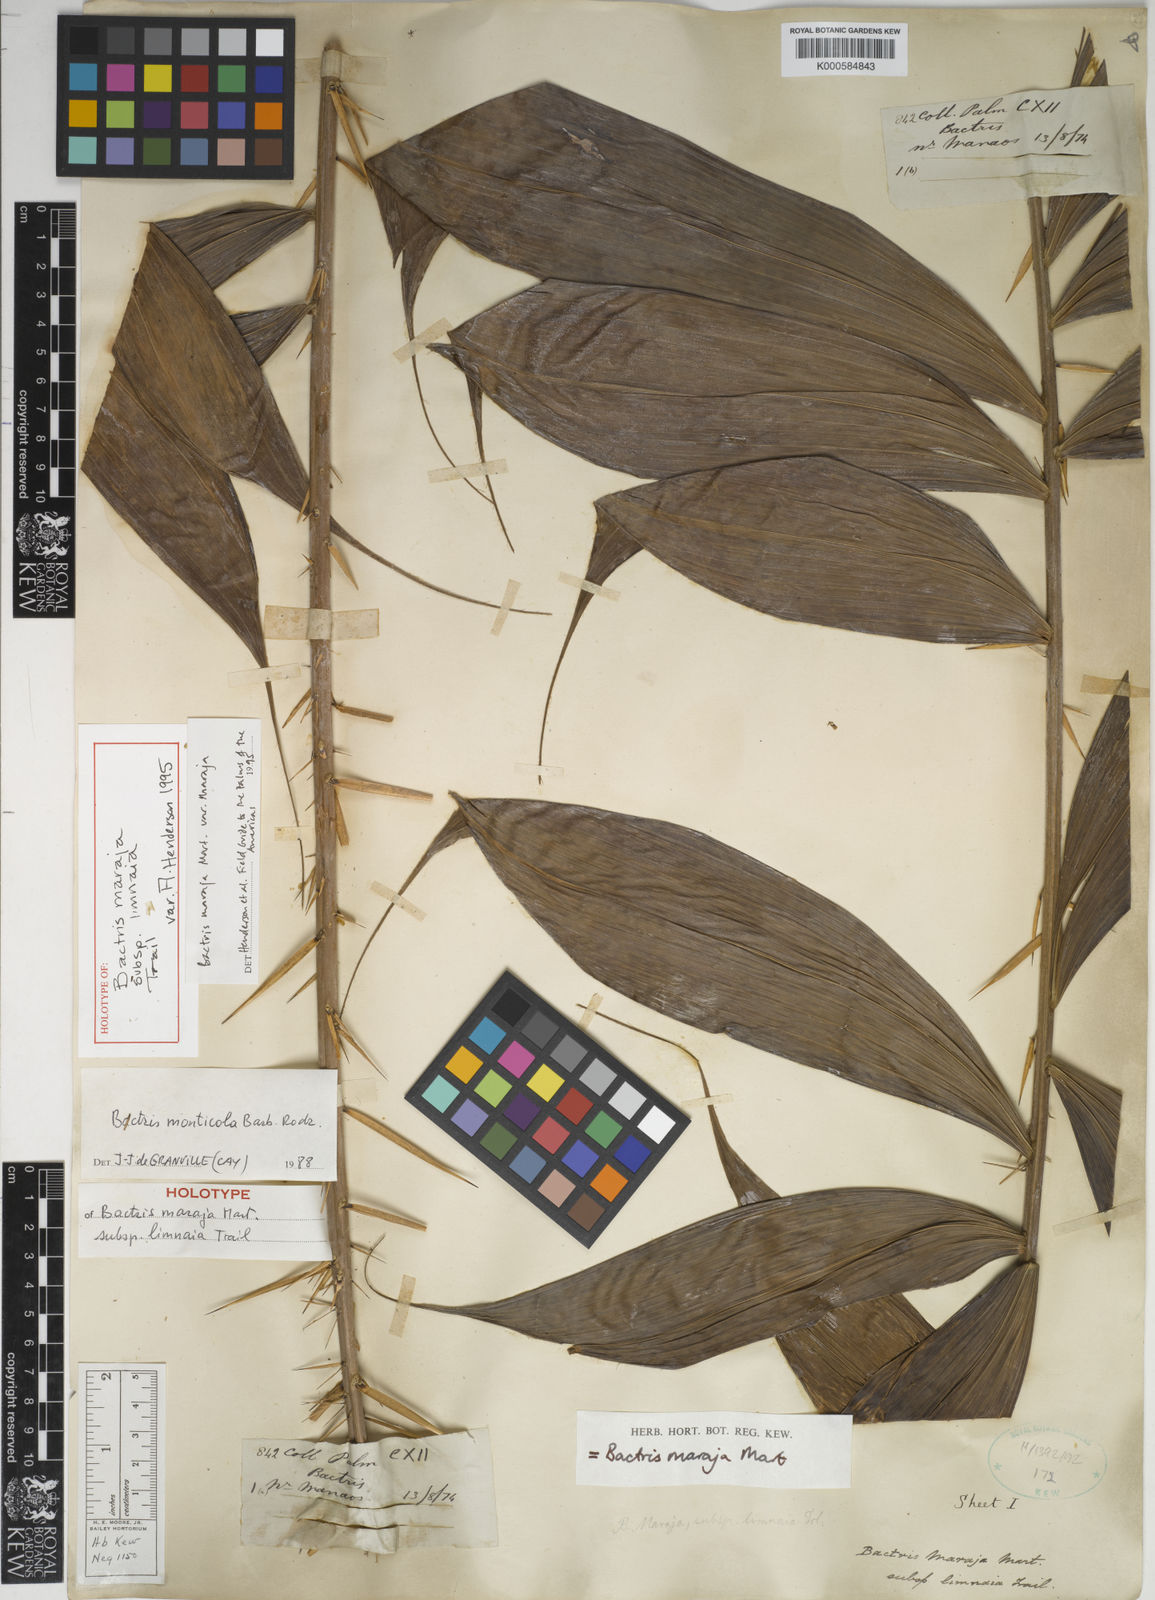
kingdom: Plantae
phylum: Tracheophyta
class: Liliopsida
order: Arecales
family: Arecaceae
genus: Bactris
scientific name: Bactris maraja
